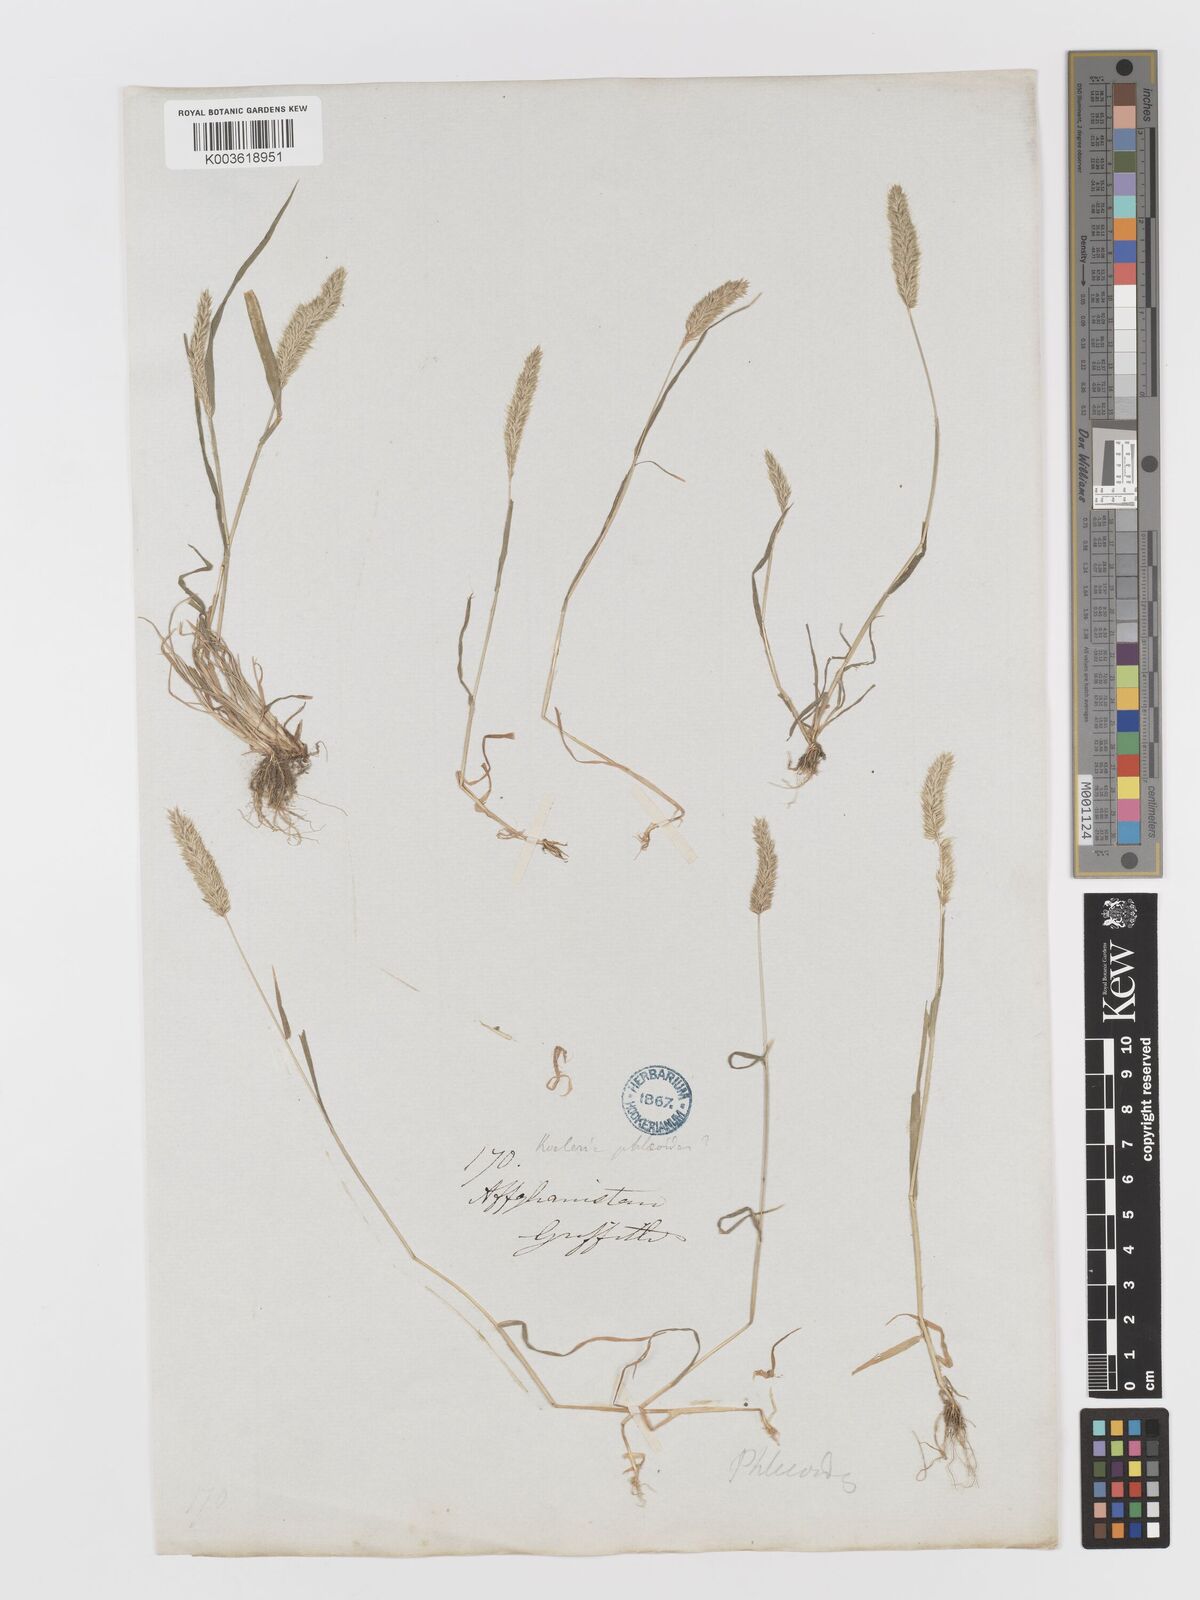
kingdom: Plantae
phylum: Tracheophyta
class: Liliopsida
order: Poales
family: Poaceae
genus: Rostraria
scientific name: Rostraria cristata
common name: Mediterranean hair-grass
